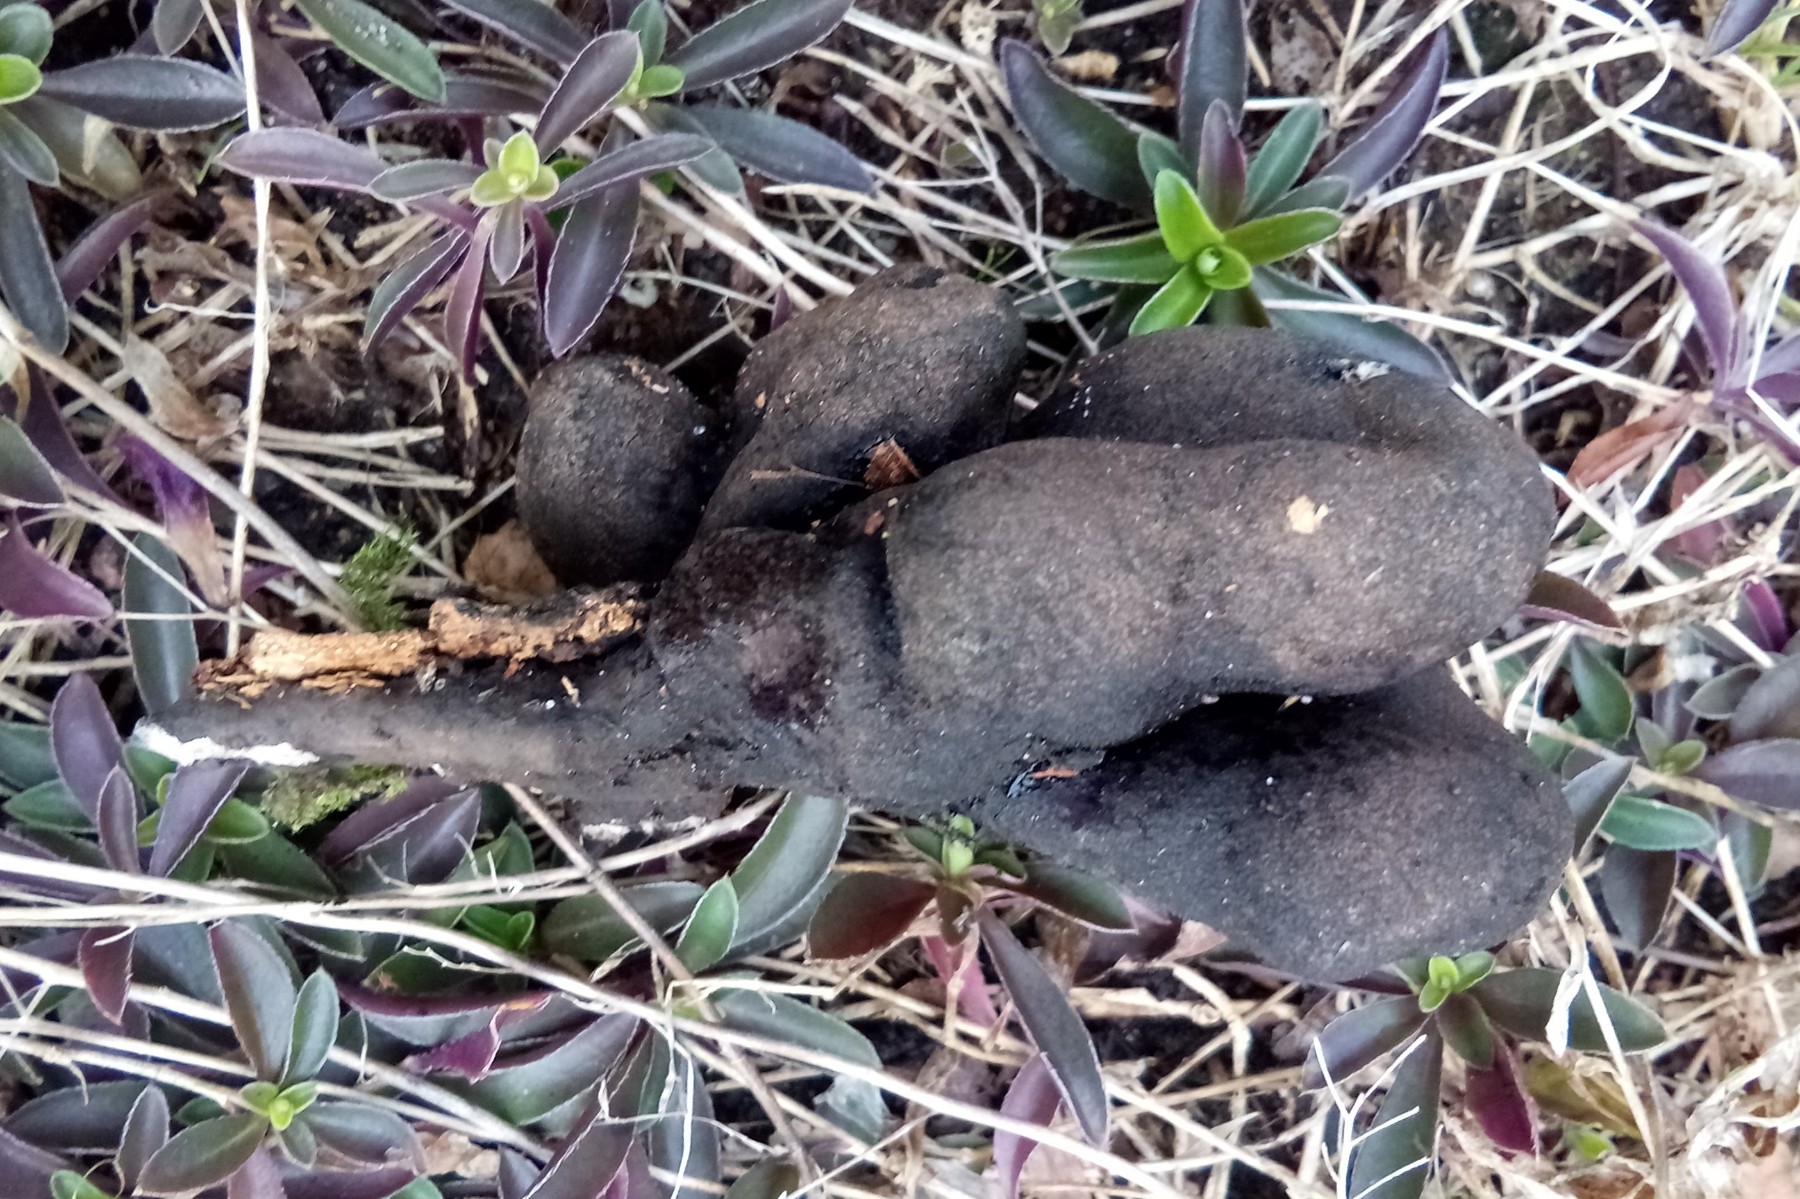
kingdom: Fungi
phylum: Ascomycota
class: Sordariomycetes
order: Xylariales
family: Xylariaceae
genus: Xylaria
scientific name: Xylaria polymorpha
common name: kølle-stødsvamp
